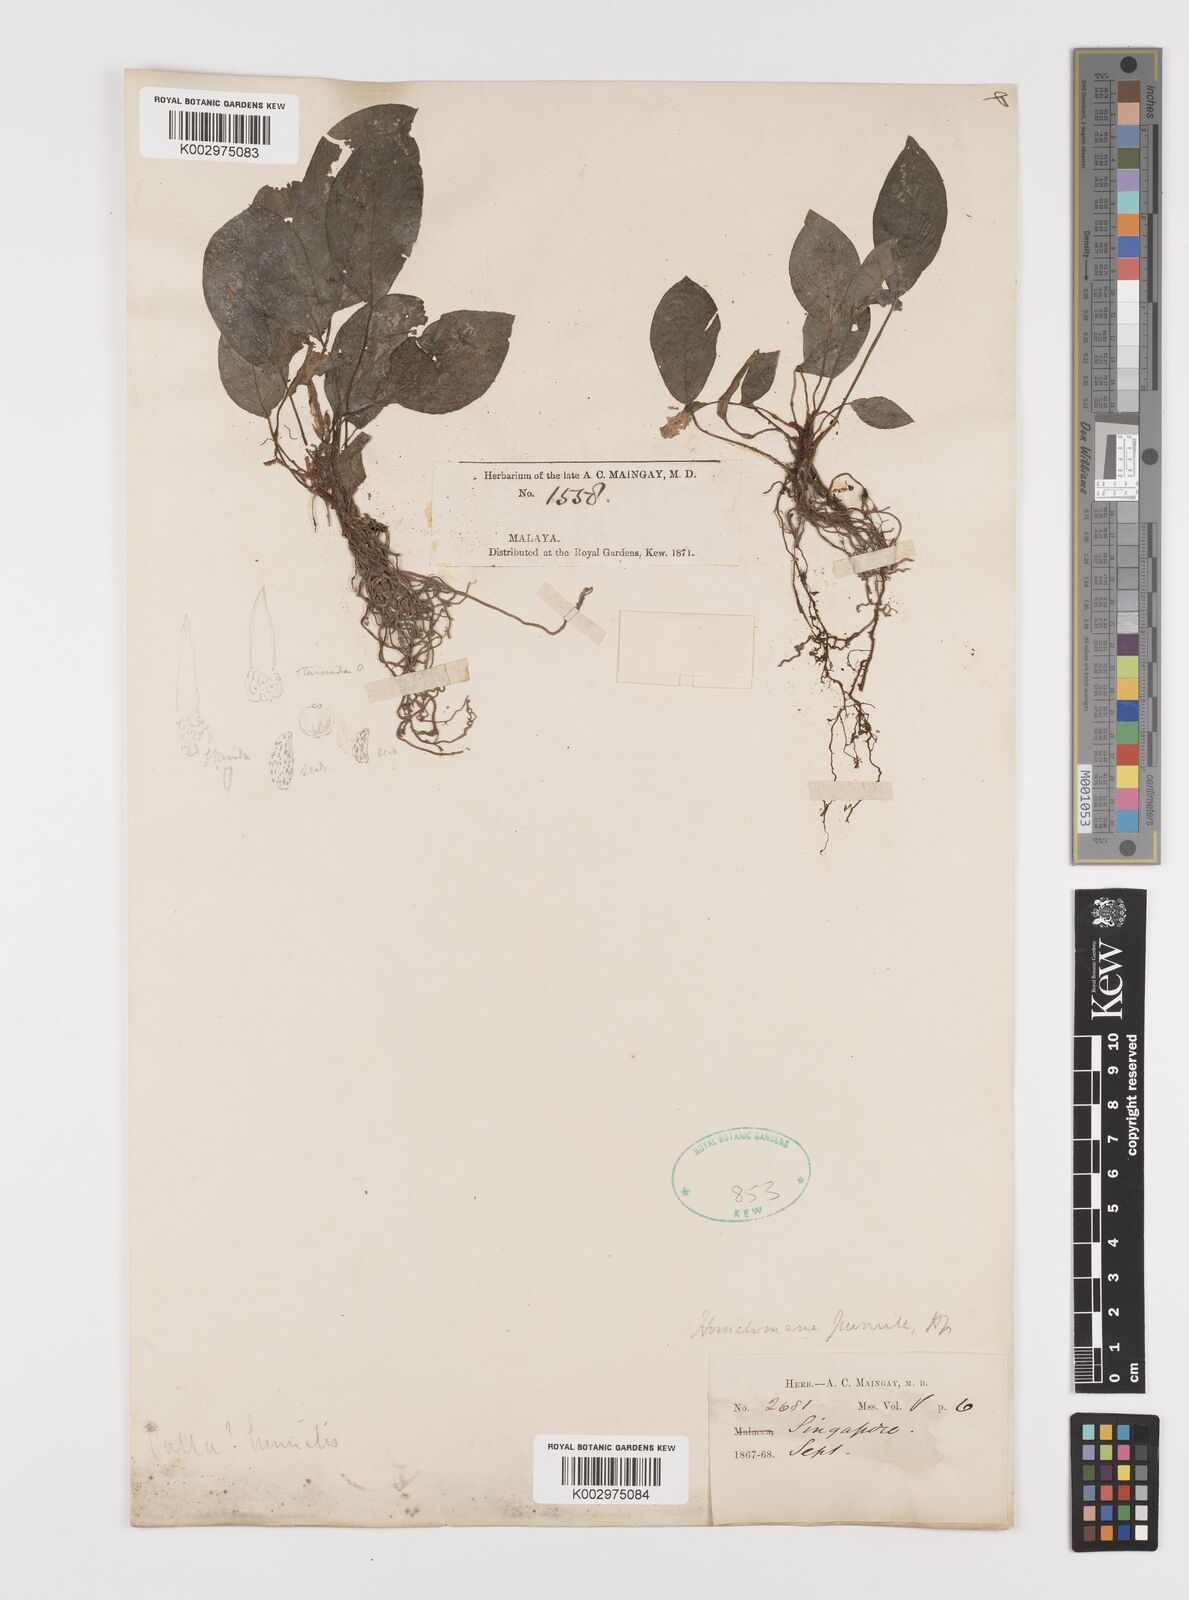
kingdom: Plantae
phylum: Tracheophyta
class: Liliopsida
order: Alismatales
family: Araceae
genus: Homalomena
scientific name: Homalomena humilis
